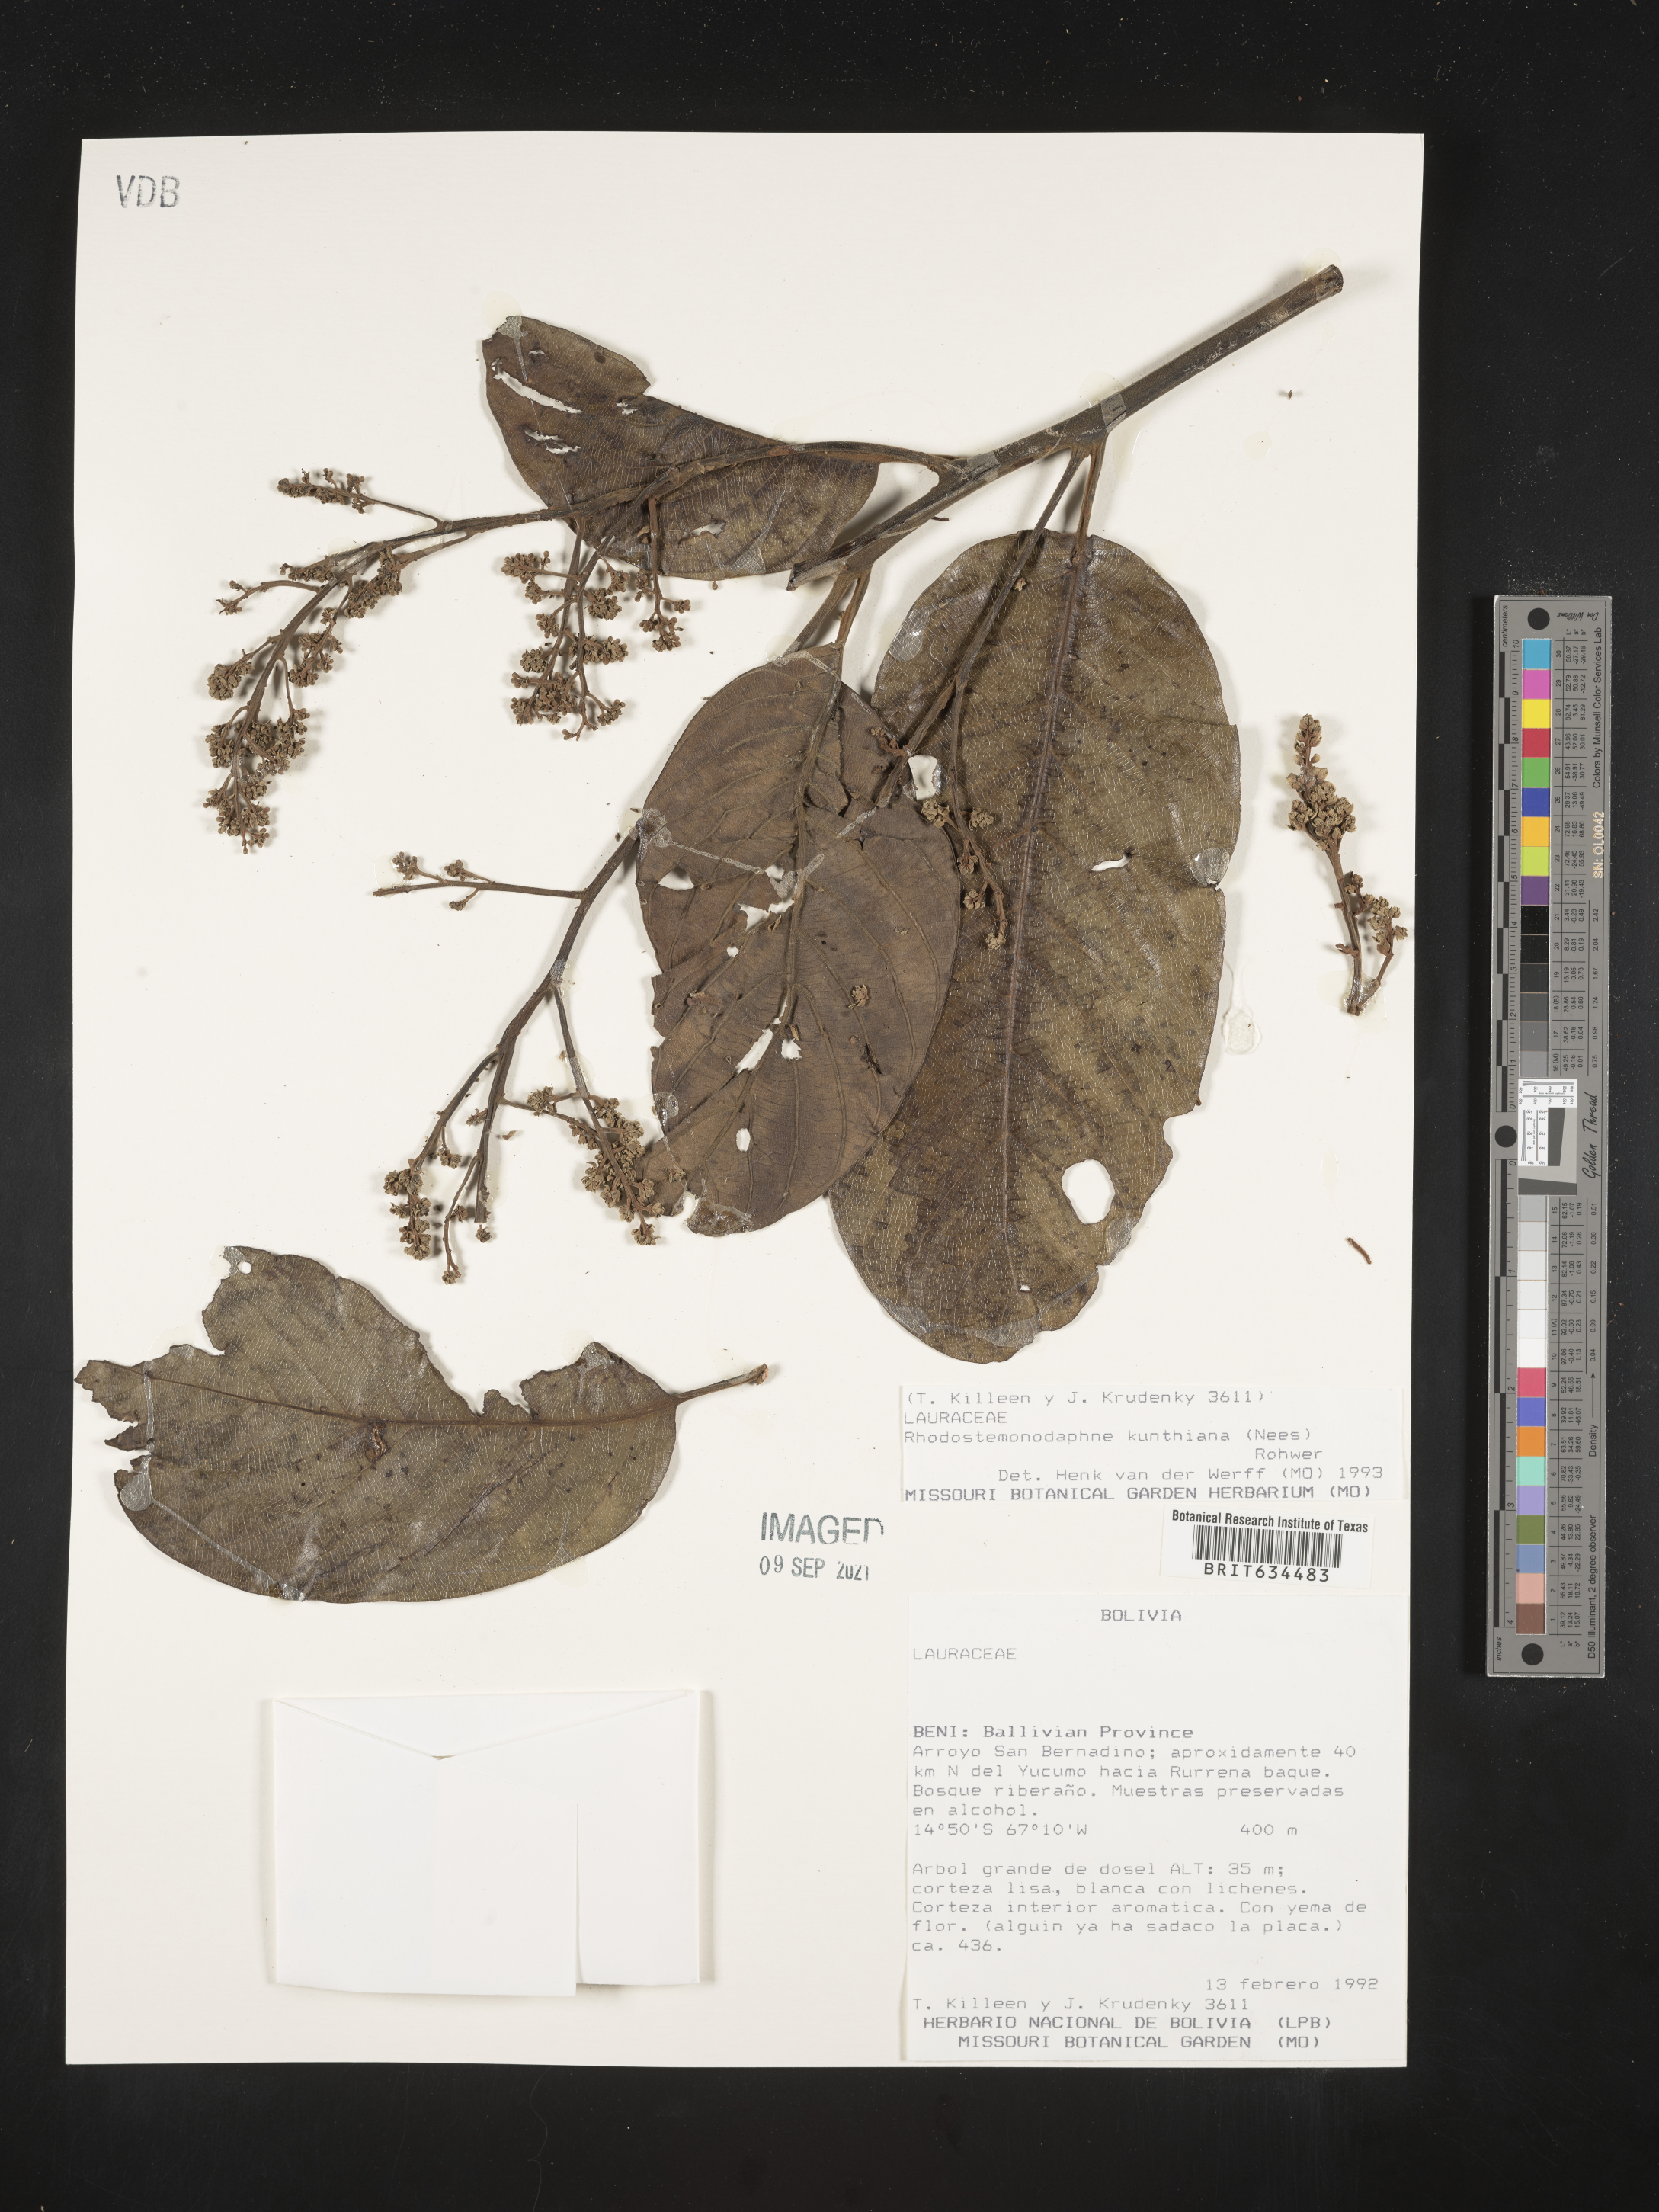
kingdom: Plantae
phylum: Tracheophyta
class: Magnoliopsida
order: Laurales
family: Lauraceae
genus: Rhodostemonodaphne
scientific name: Rhodostemonodaphne
